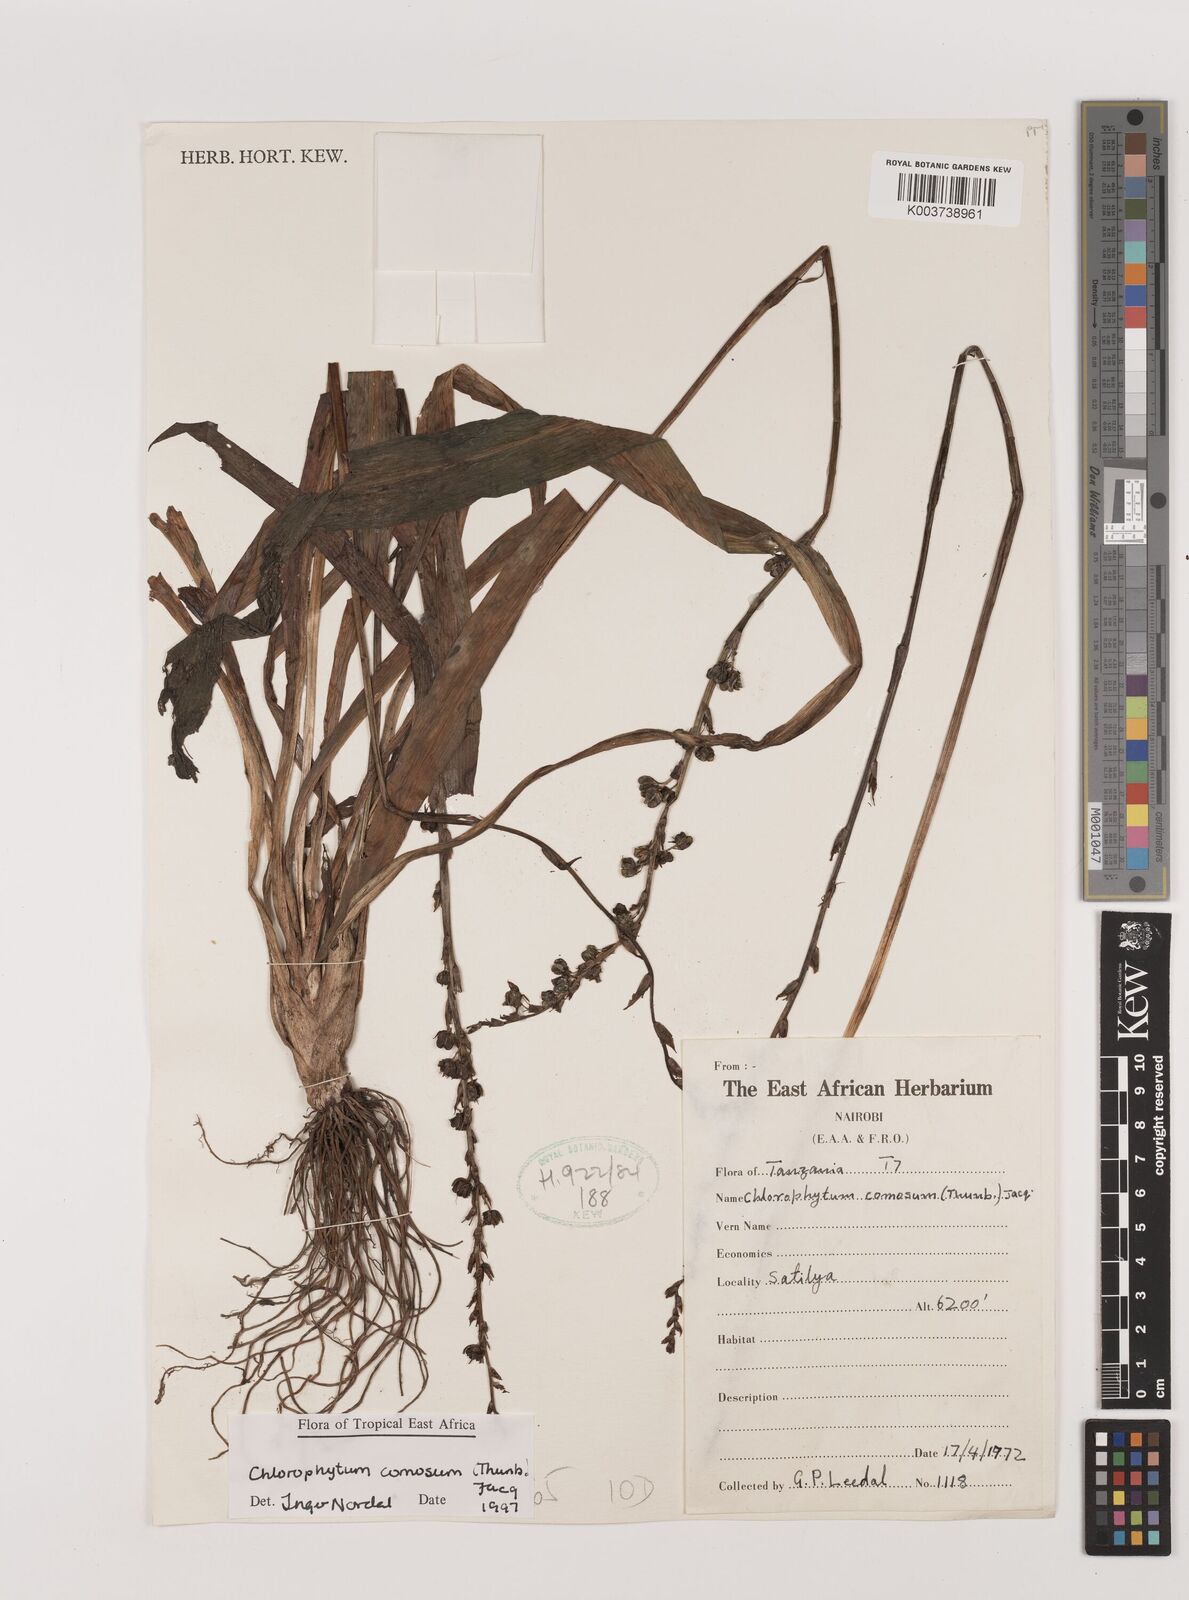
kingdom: Plantae
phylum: Tracheophyta
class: Liliopsida
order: Asparagales
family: Asparagaceae
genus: Chlorophytum
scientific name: Chlorophytum comosum
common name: Spider plant
